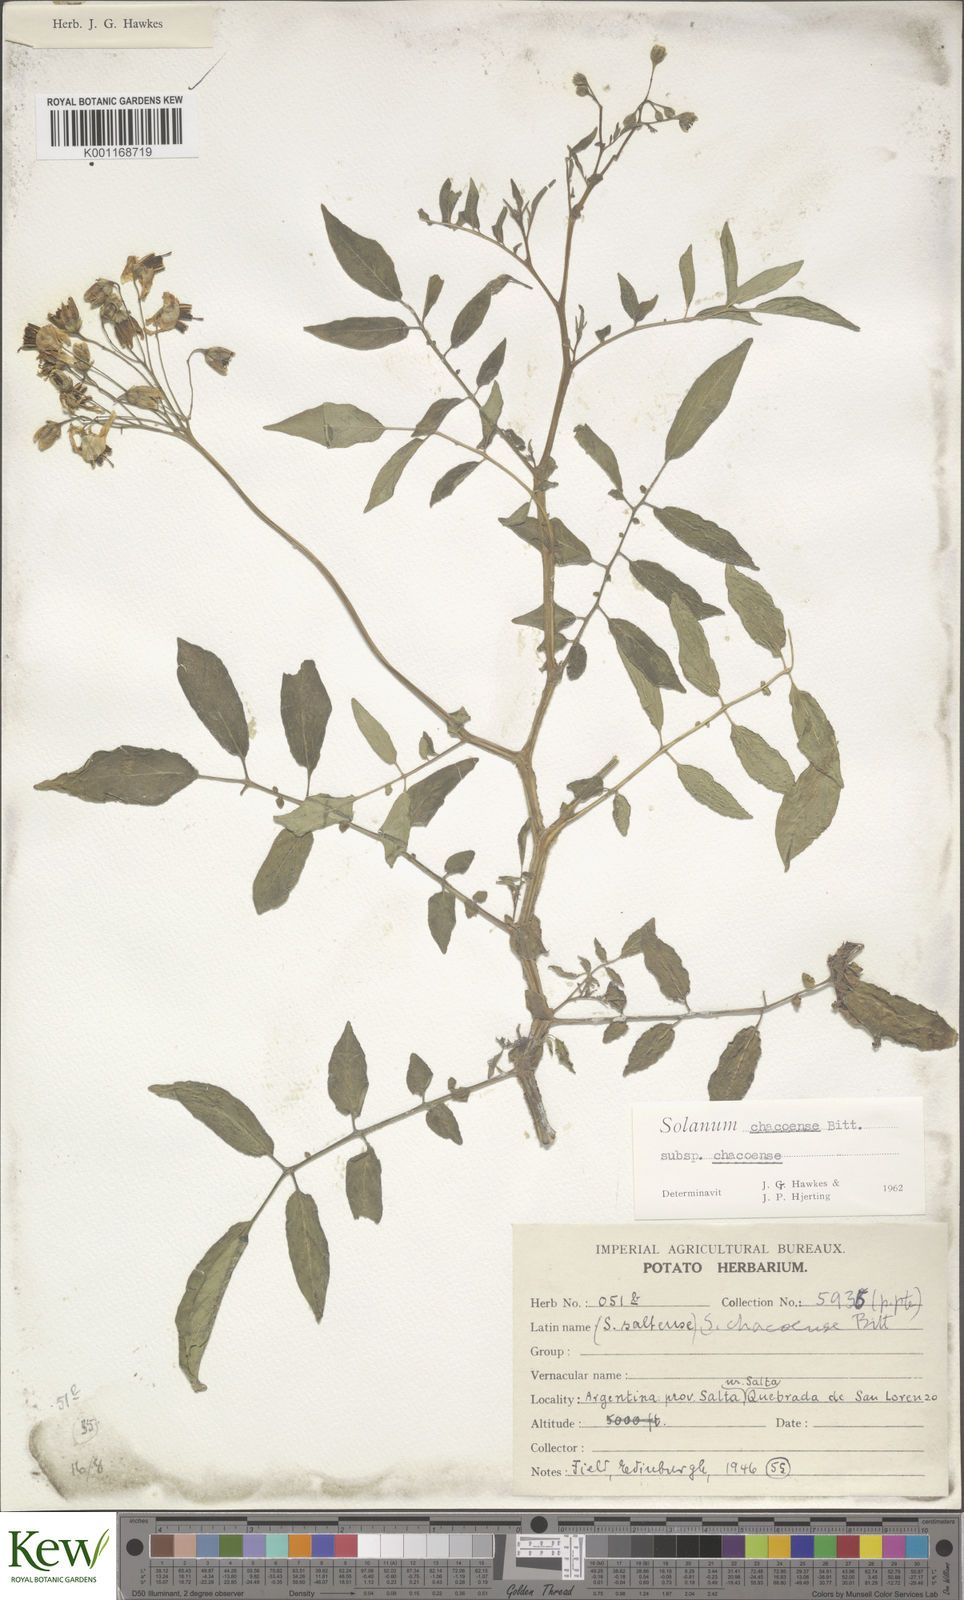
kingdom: Plantae
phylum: Tracheophyta
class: Magnoliopsida
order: Solanales
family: Solanaceae
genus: Solanum
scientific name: Solanum chacoense
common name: Chaco potato
